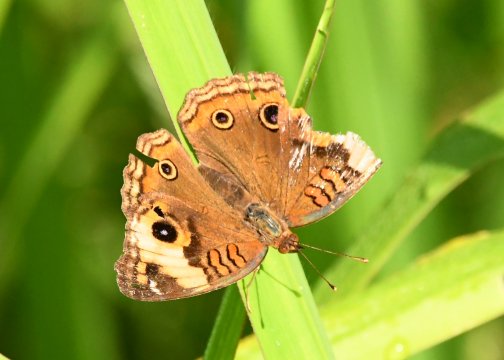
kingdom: Animalia
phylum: Arthropoda
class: Insecta
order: Lepidoptera
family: Nymphalidae
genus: Junonia
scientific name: Junonia lavinia
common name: Tropical Buckeye
